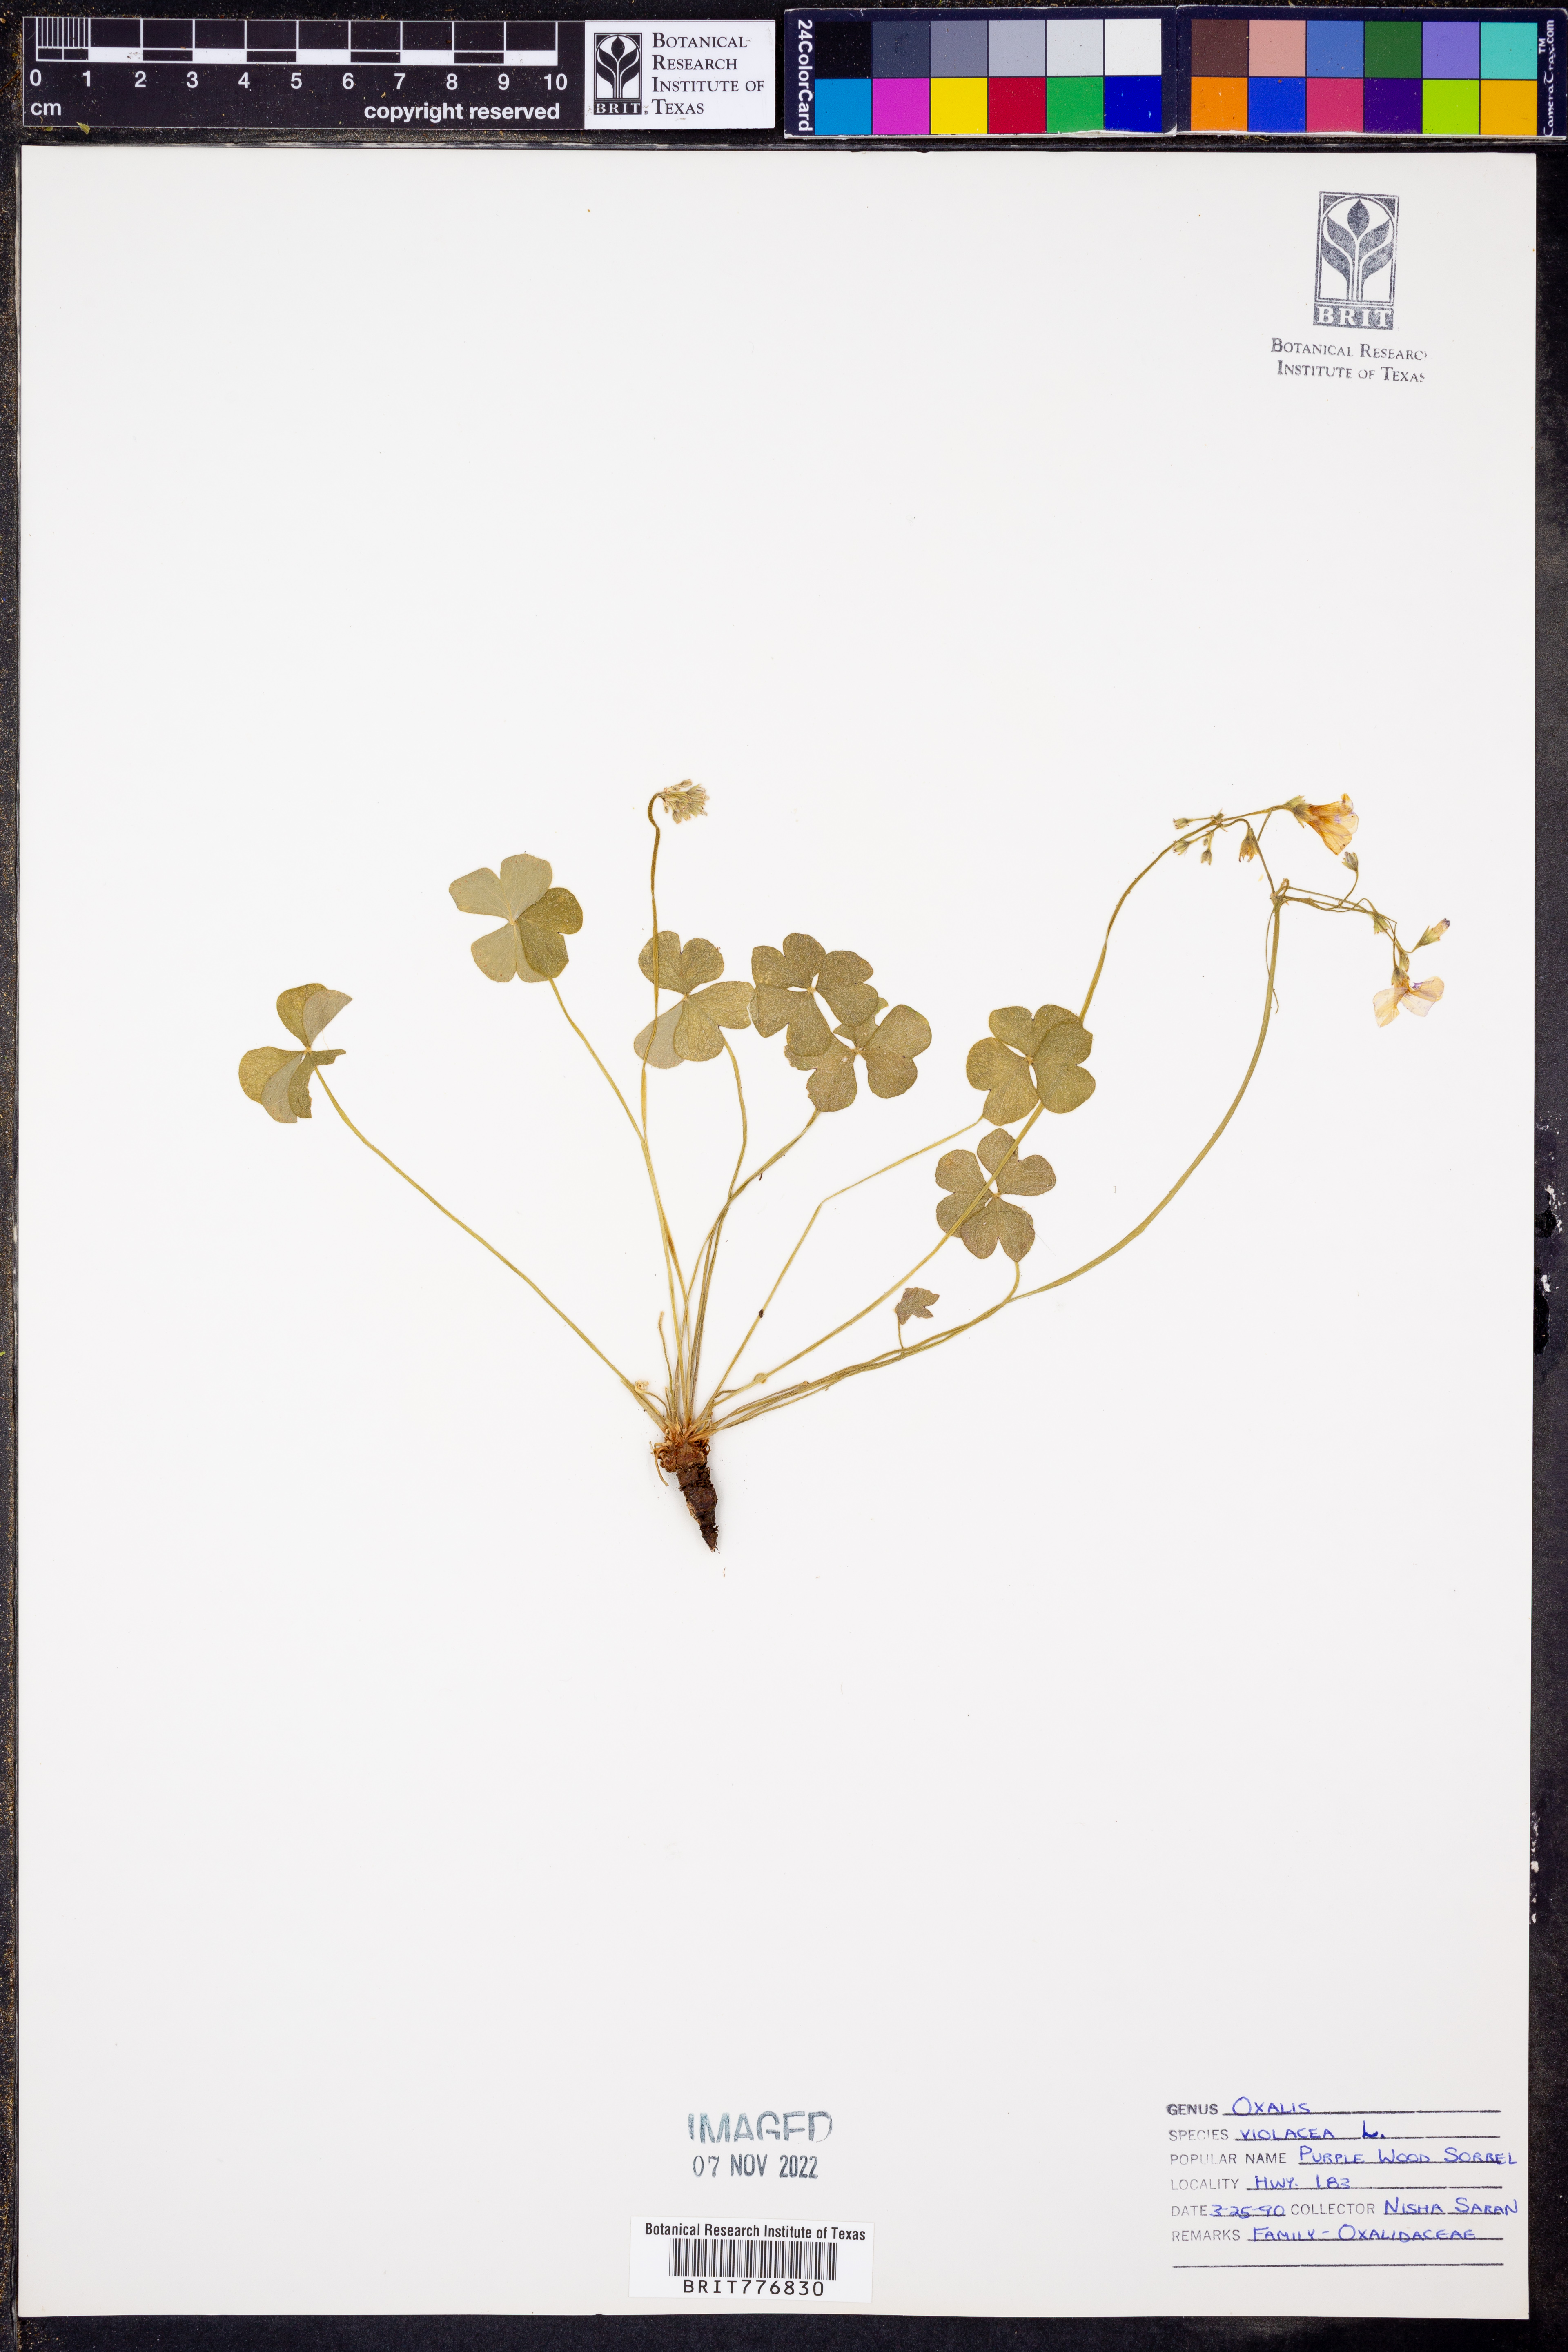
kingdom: Plantae
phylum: Tracheophyta
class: Magnoliopsida
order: Oxalidales
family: Oxalidaceae
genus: Oxalis
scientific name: Oxalis violacea
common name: Violet wood-sorrel
